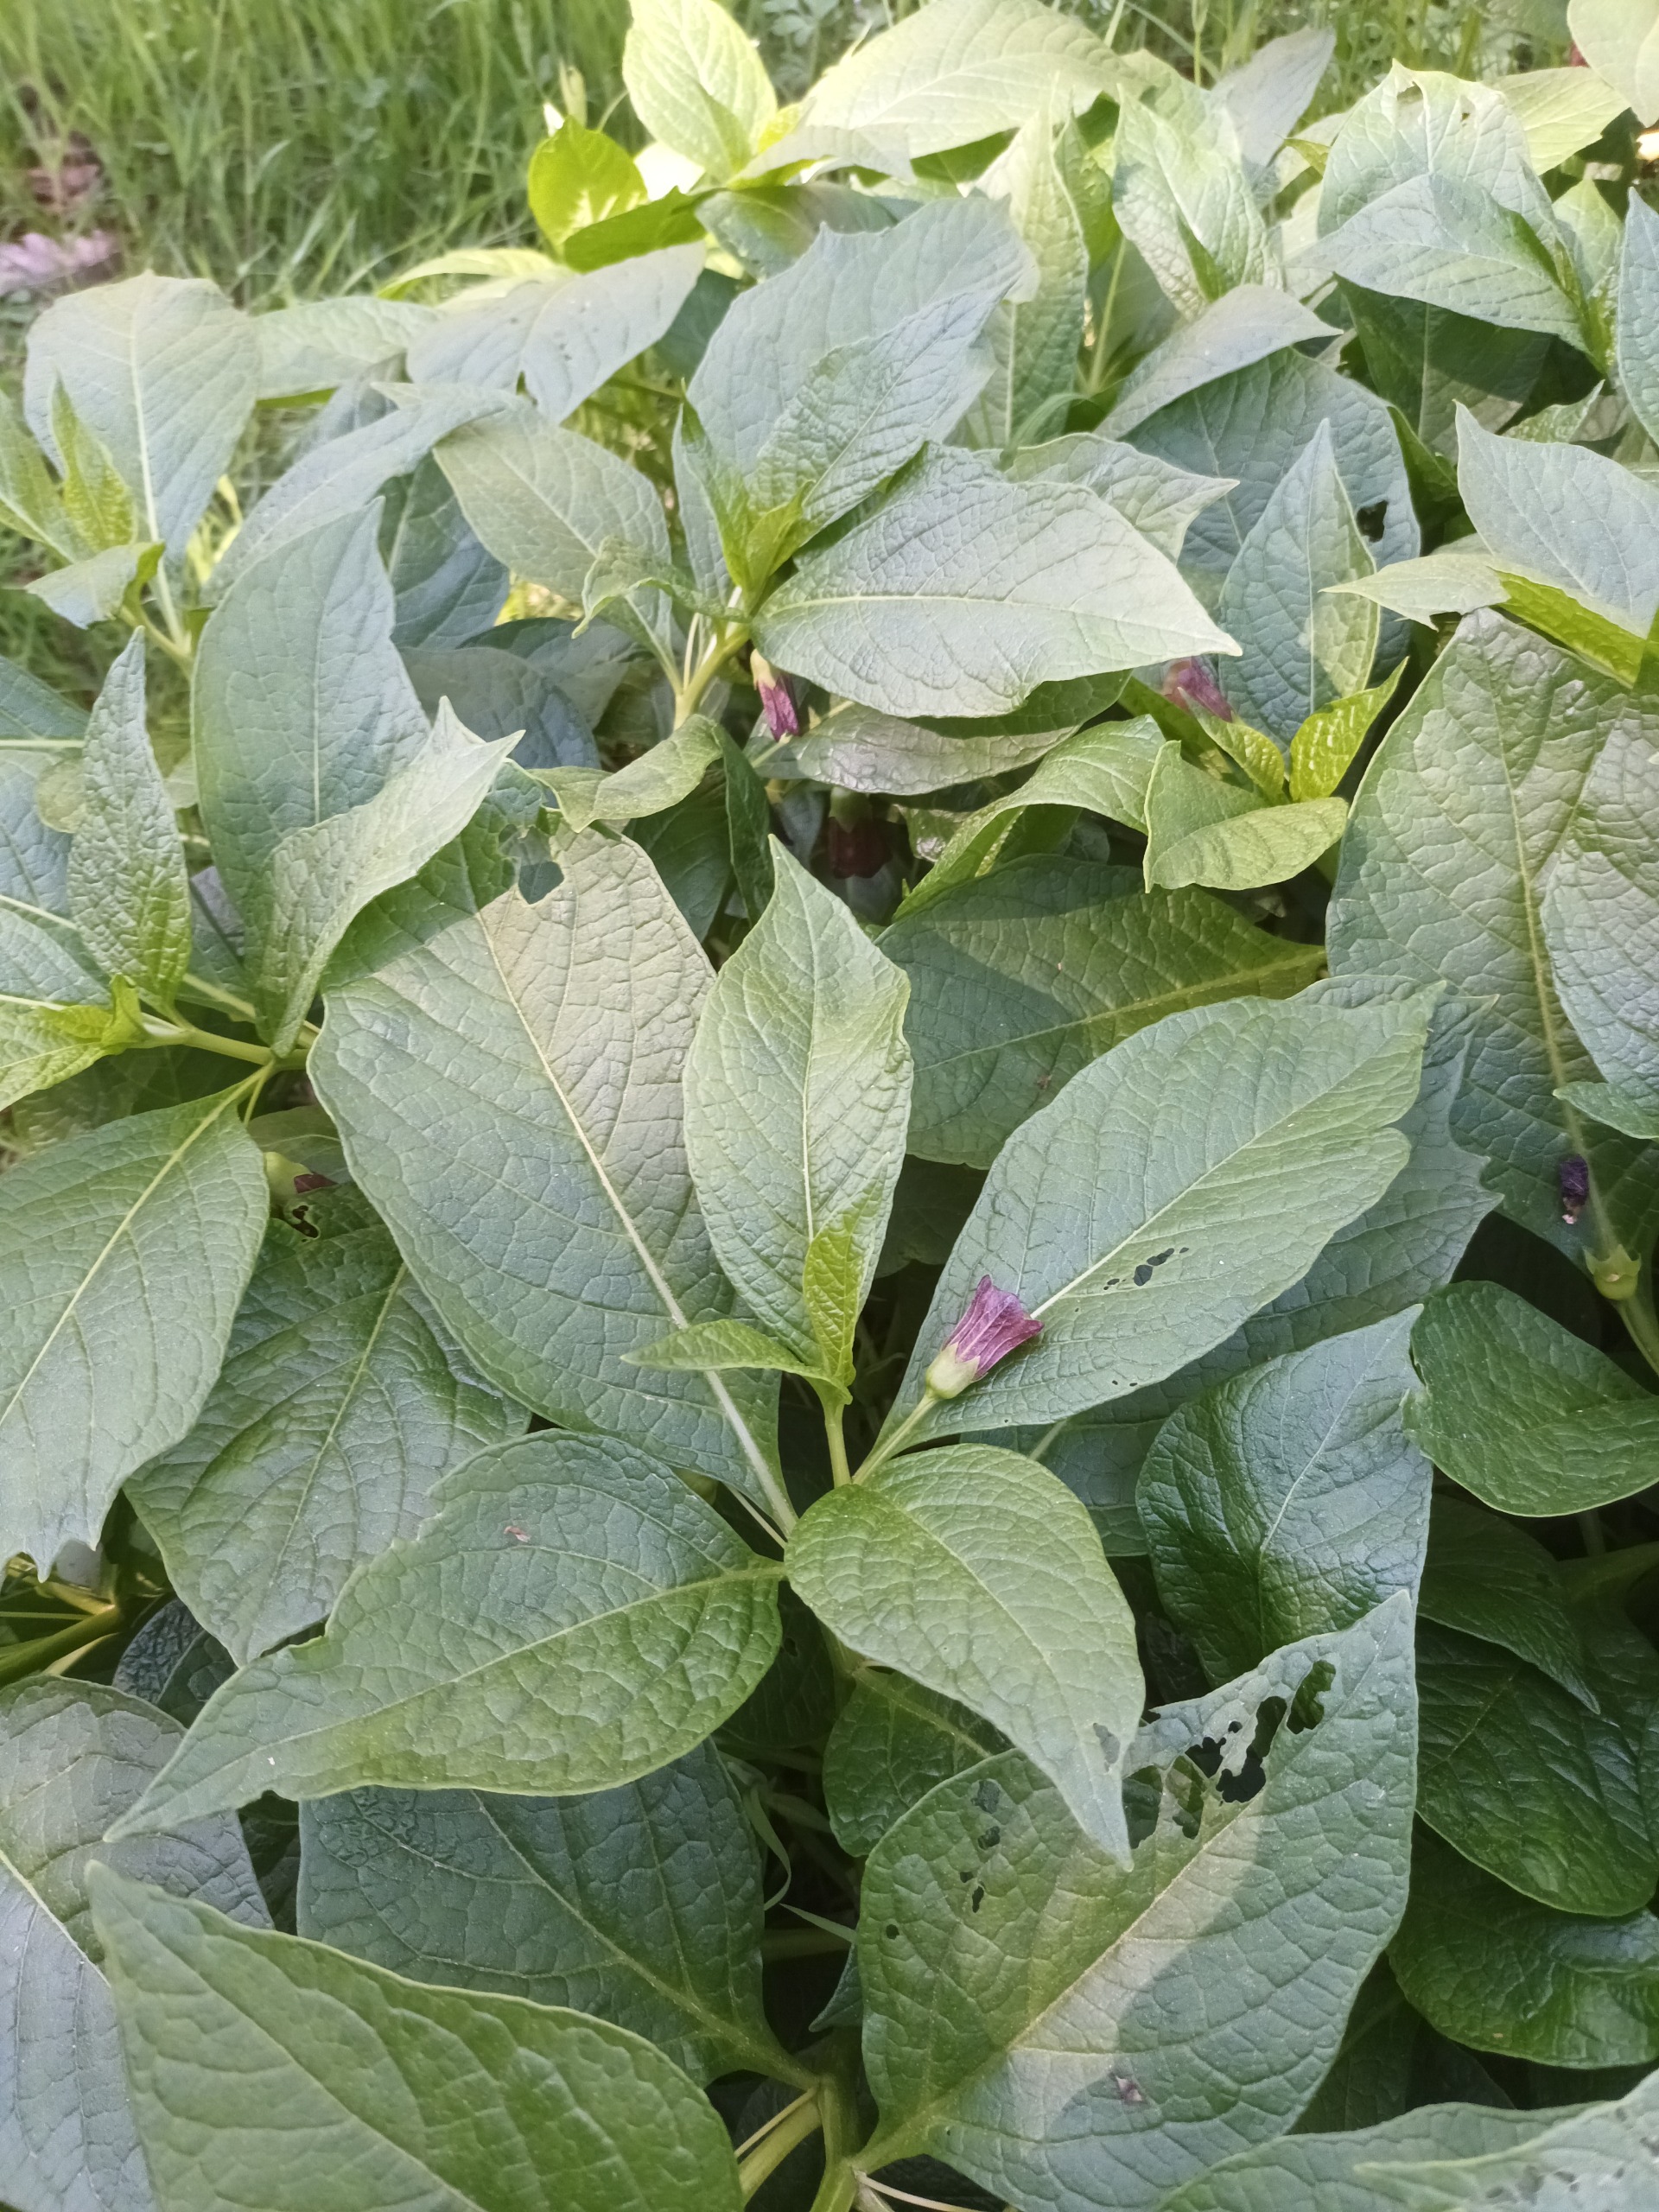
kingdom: Plantae
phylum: Tracheophyta
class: Magnoliopsida
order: Solanales
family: Solanaceae
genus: Scopolia
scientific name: Scopolia carniolica
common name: Skopolaminurt
